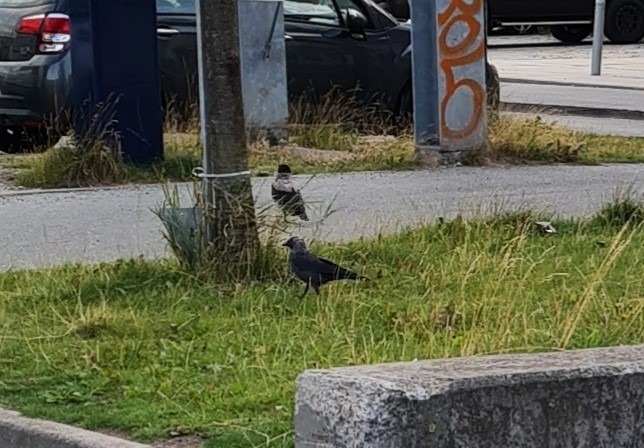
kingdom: Animalia
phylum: Chordata
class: Aves
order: Passeriformes
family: Corvidae
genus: Coloeus
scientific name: Coloeus monedula
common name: Allike
